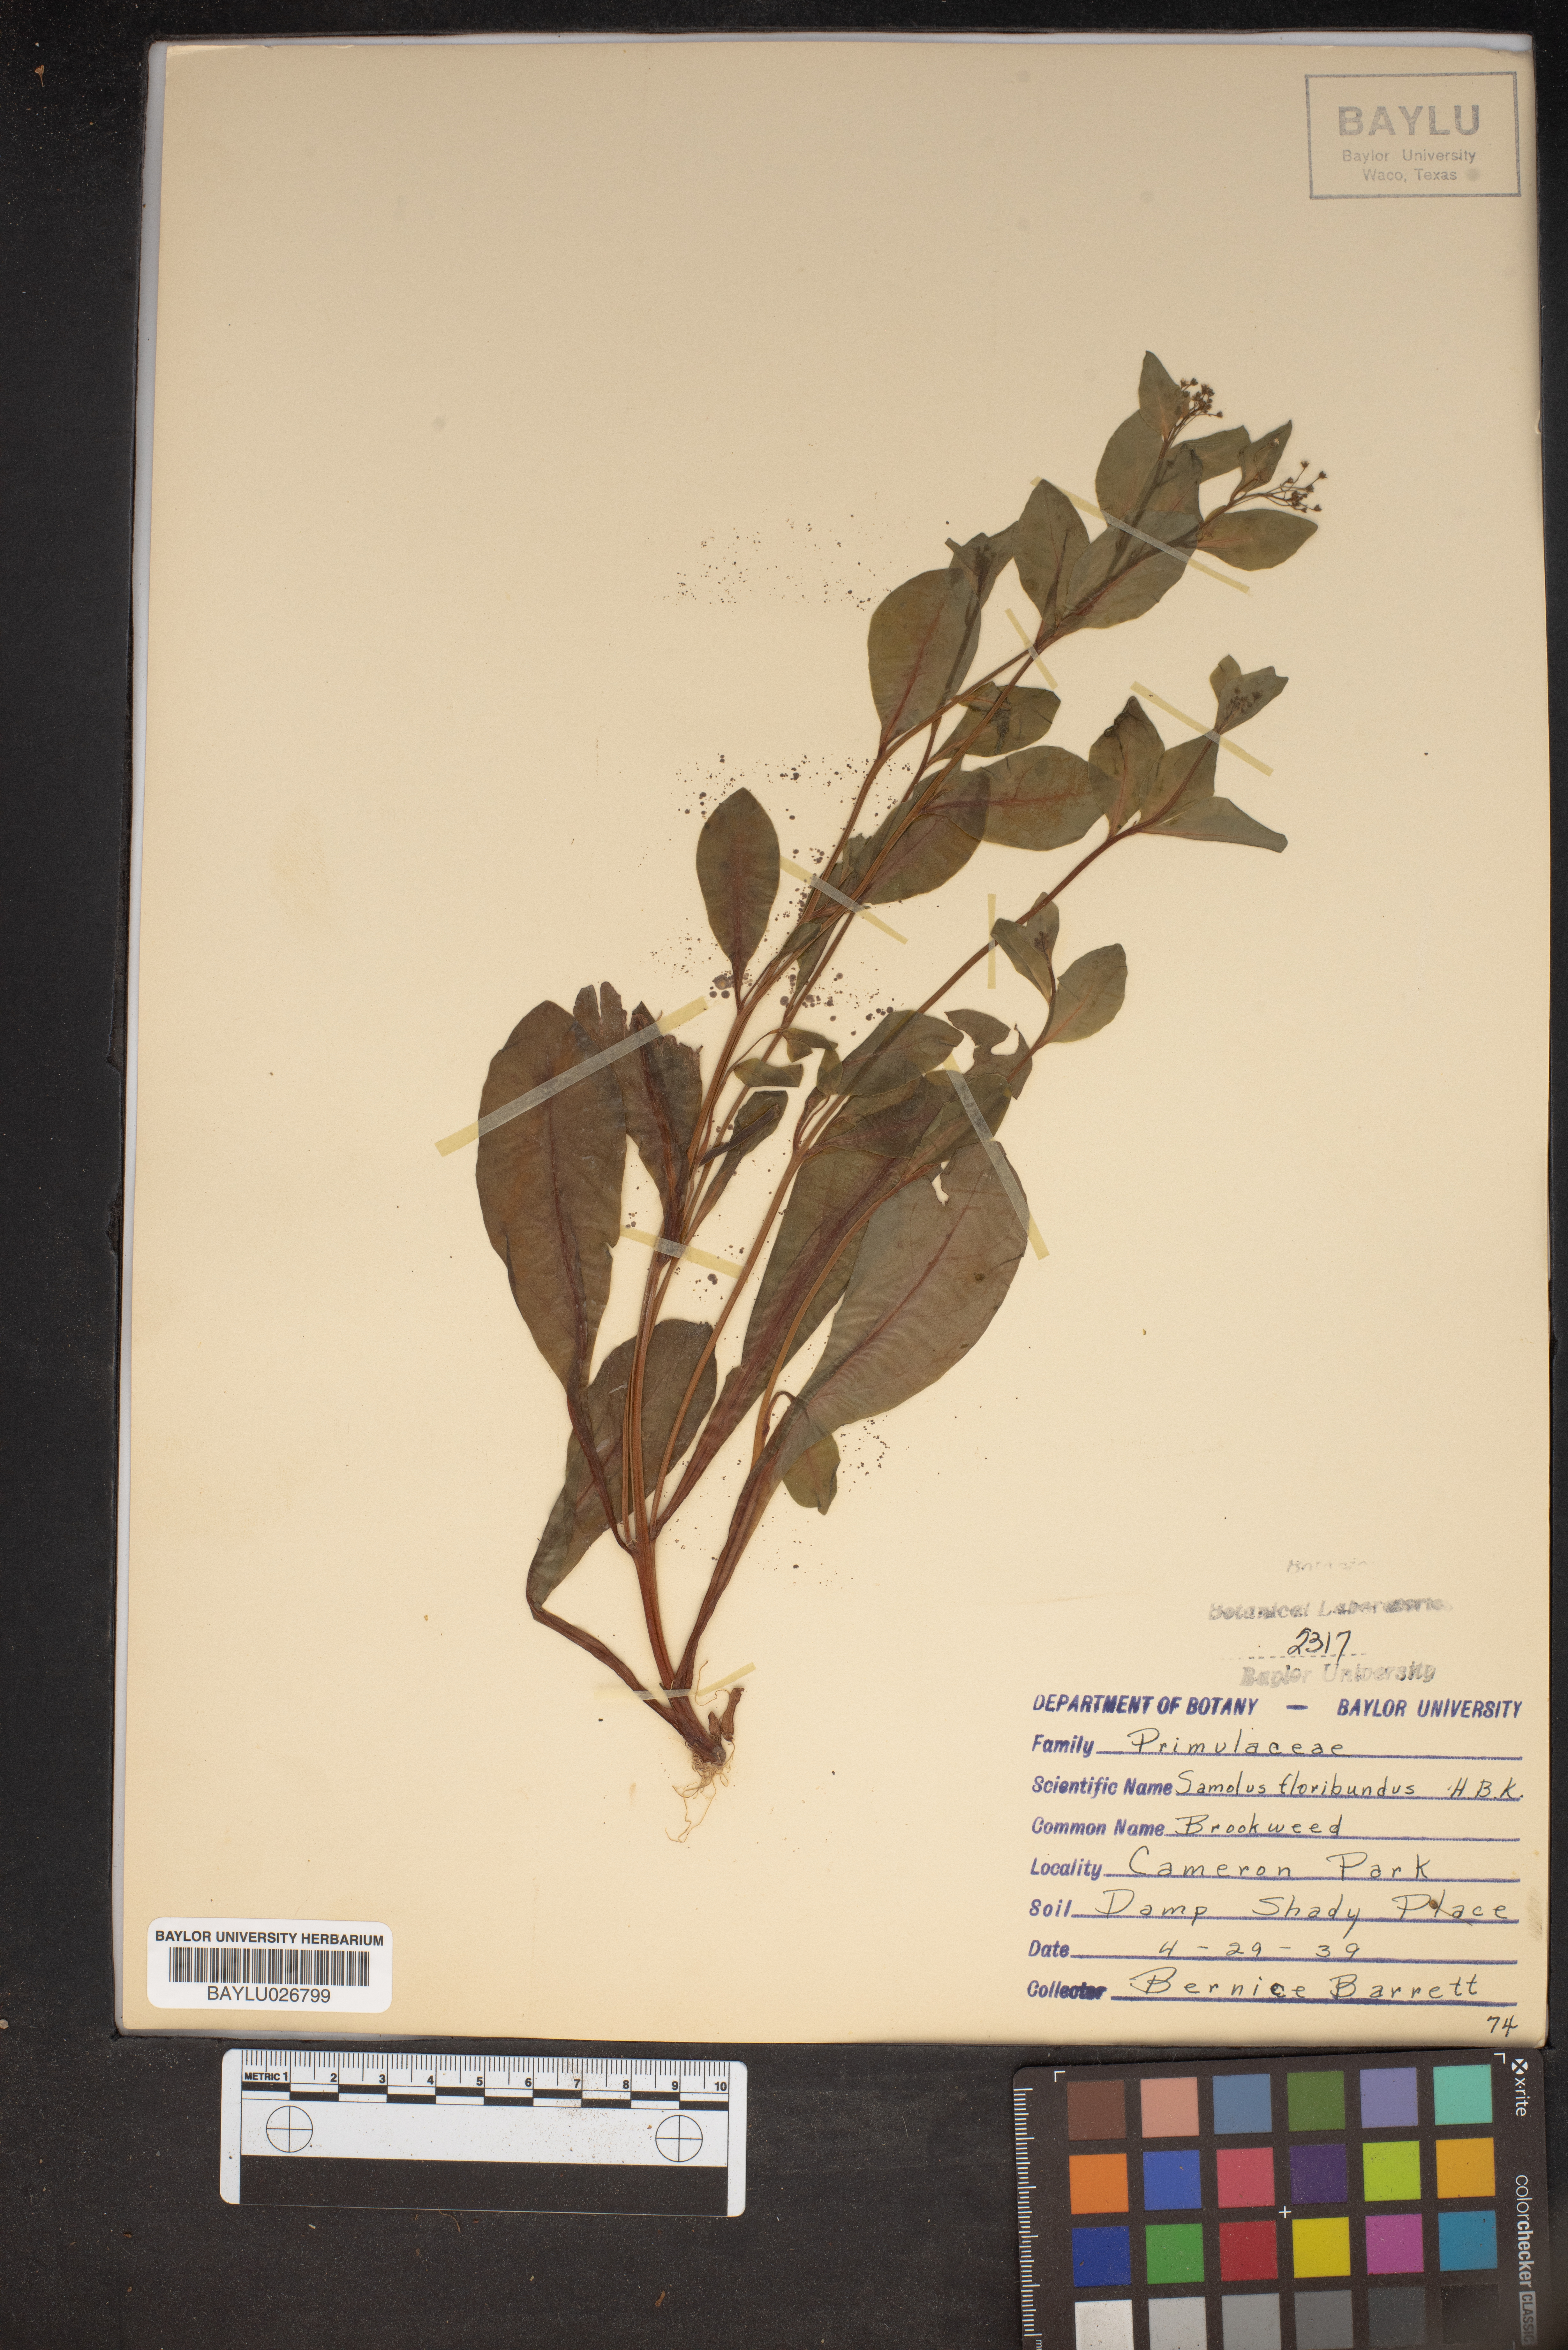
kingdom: Plantae
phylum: Tracheophyta
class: Magnoliopsida
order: Ericales
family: Primulaceae
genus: Samolus
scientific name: Samolus parviflorus
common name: False water pimpernel
